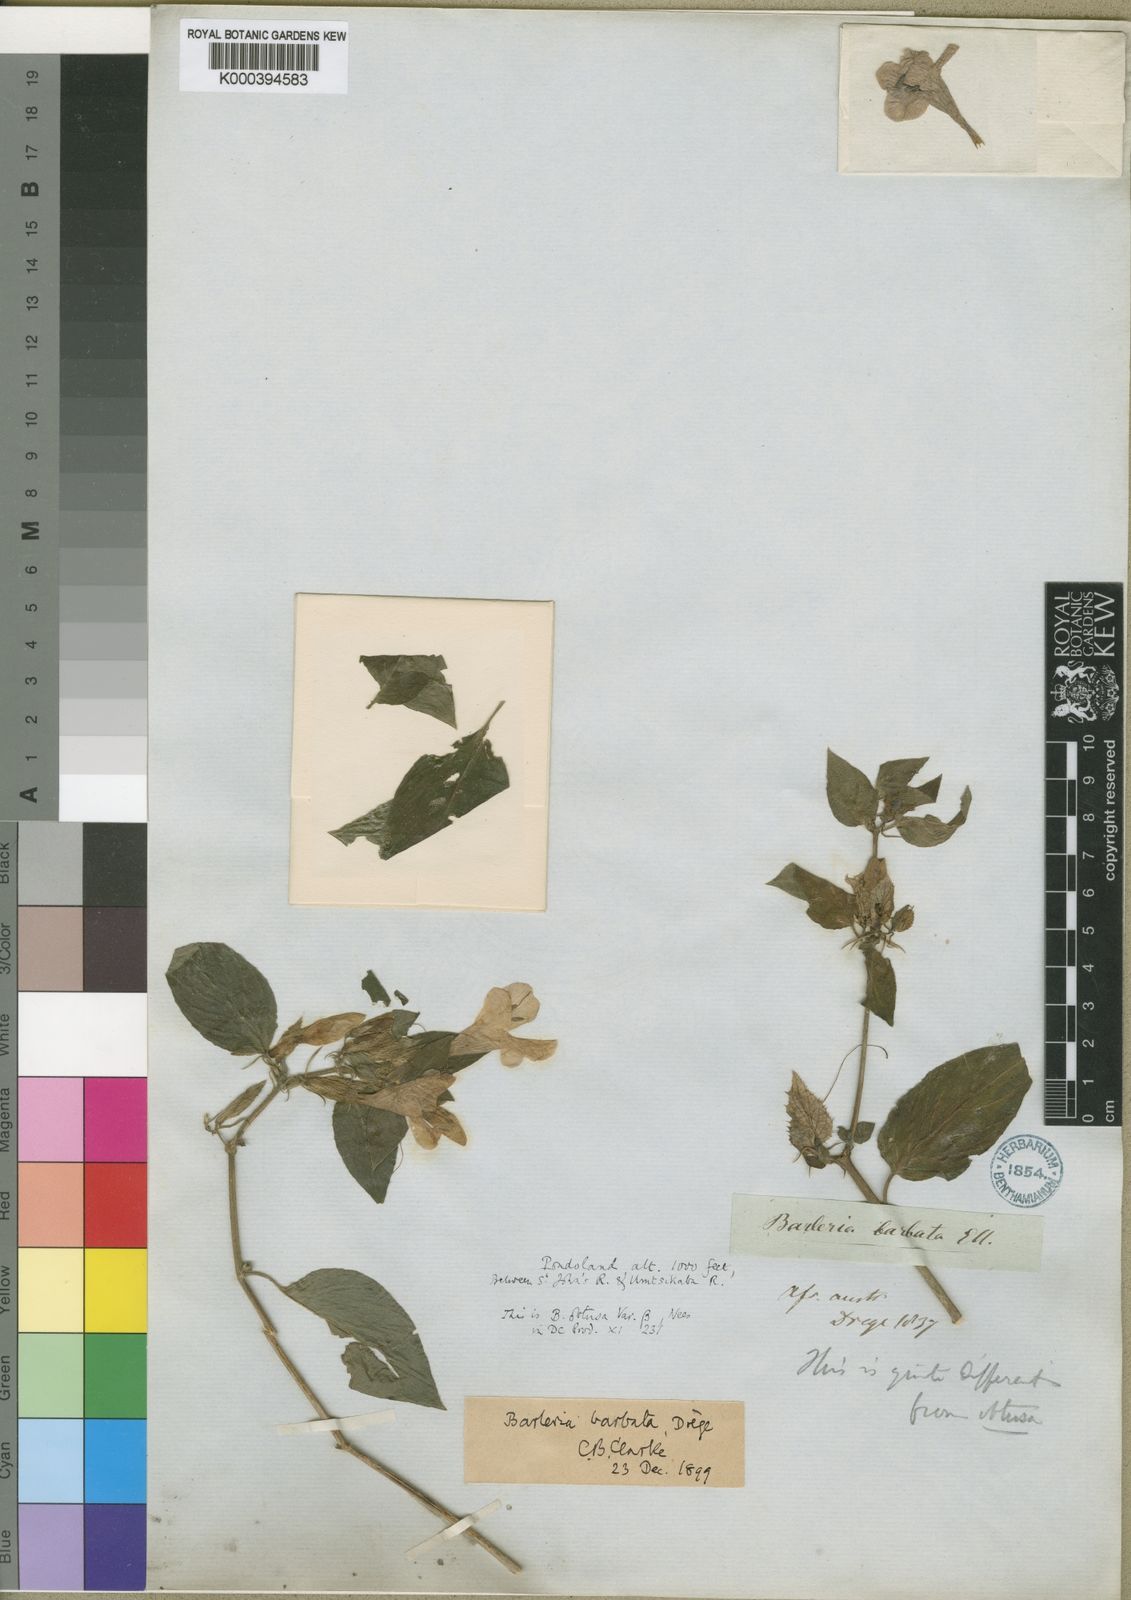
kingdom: Plantae
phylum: Tracheophyta
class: Magnoliopsida
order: Lamiales
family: Acanthaceae
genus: Barleria
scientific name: Barleria gueinzii
